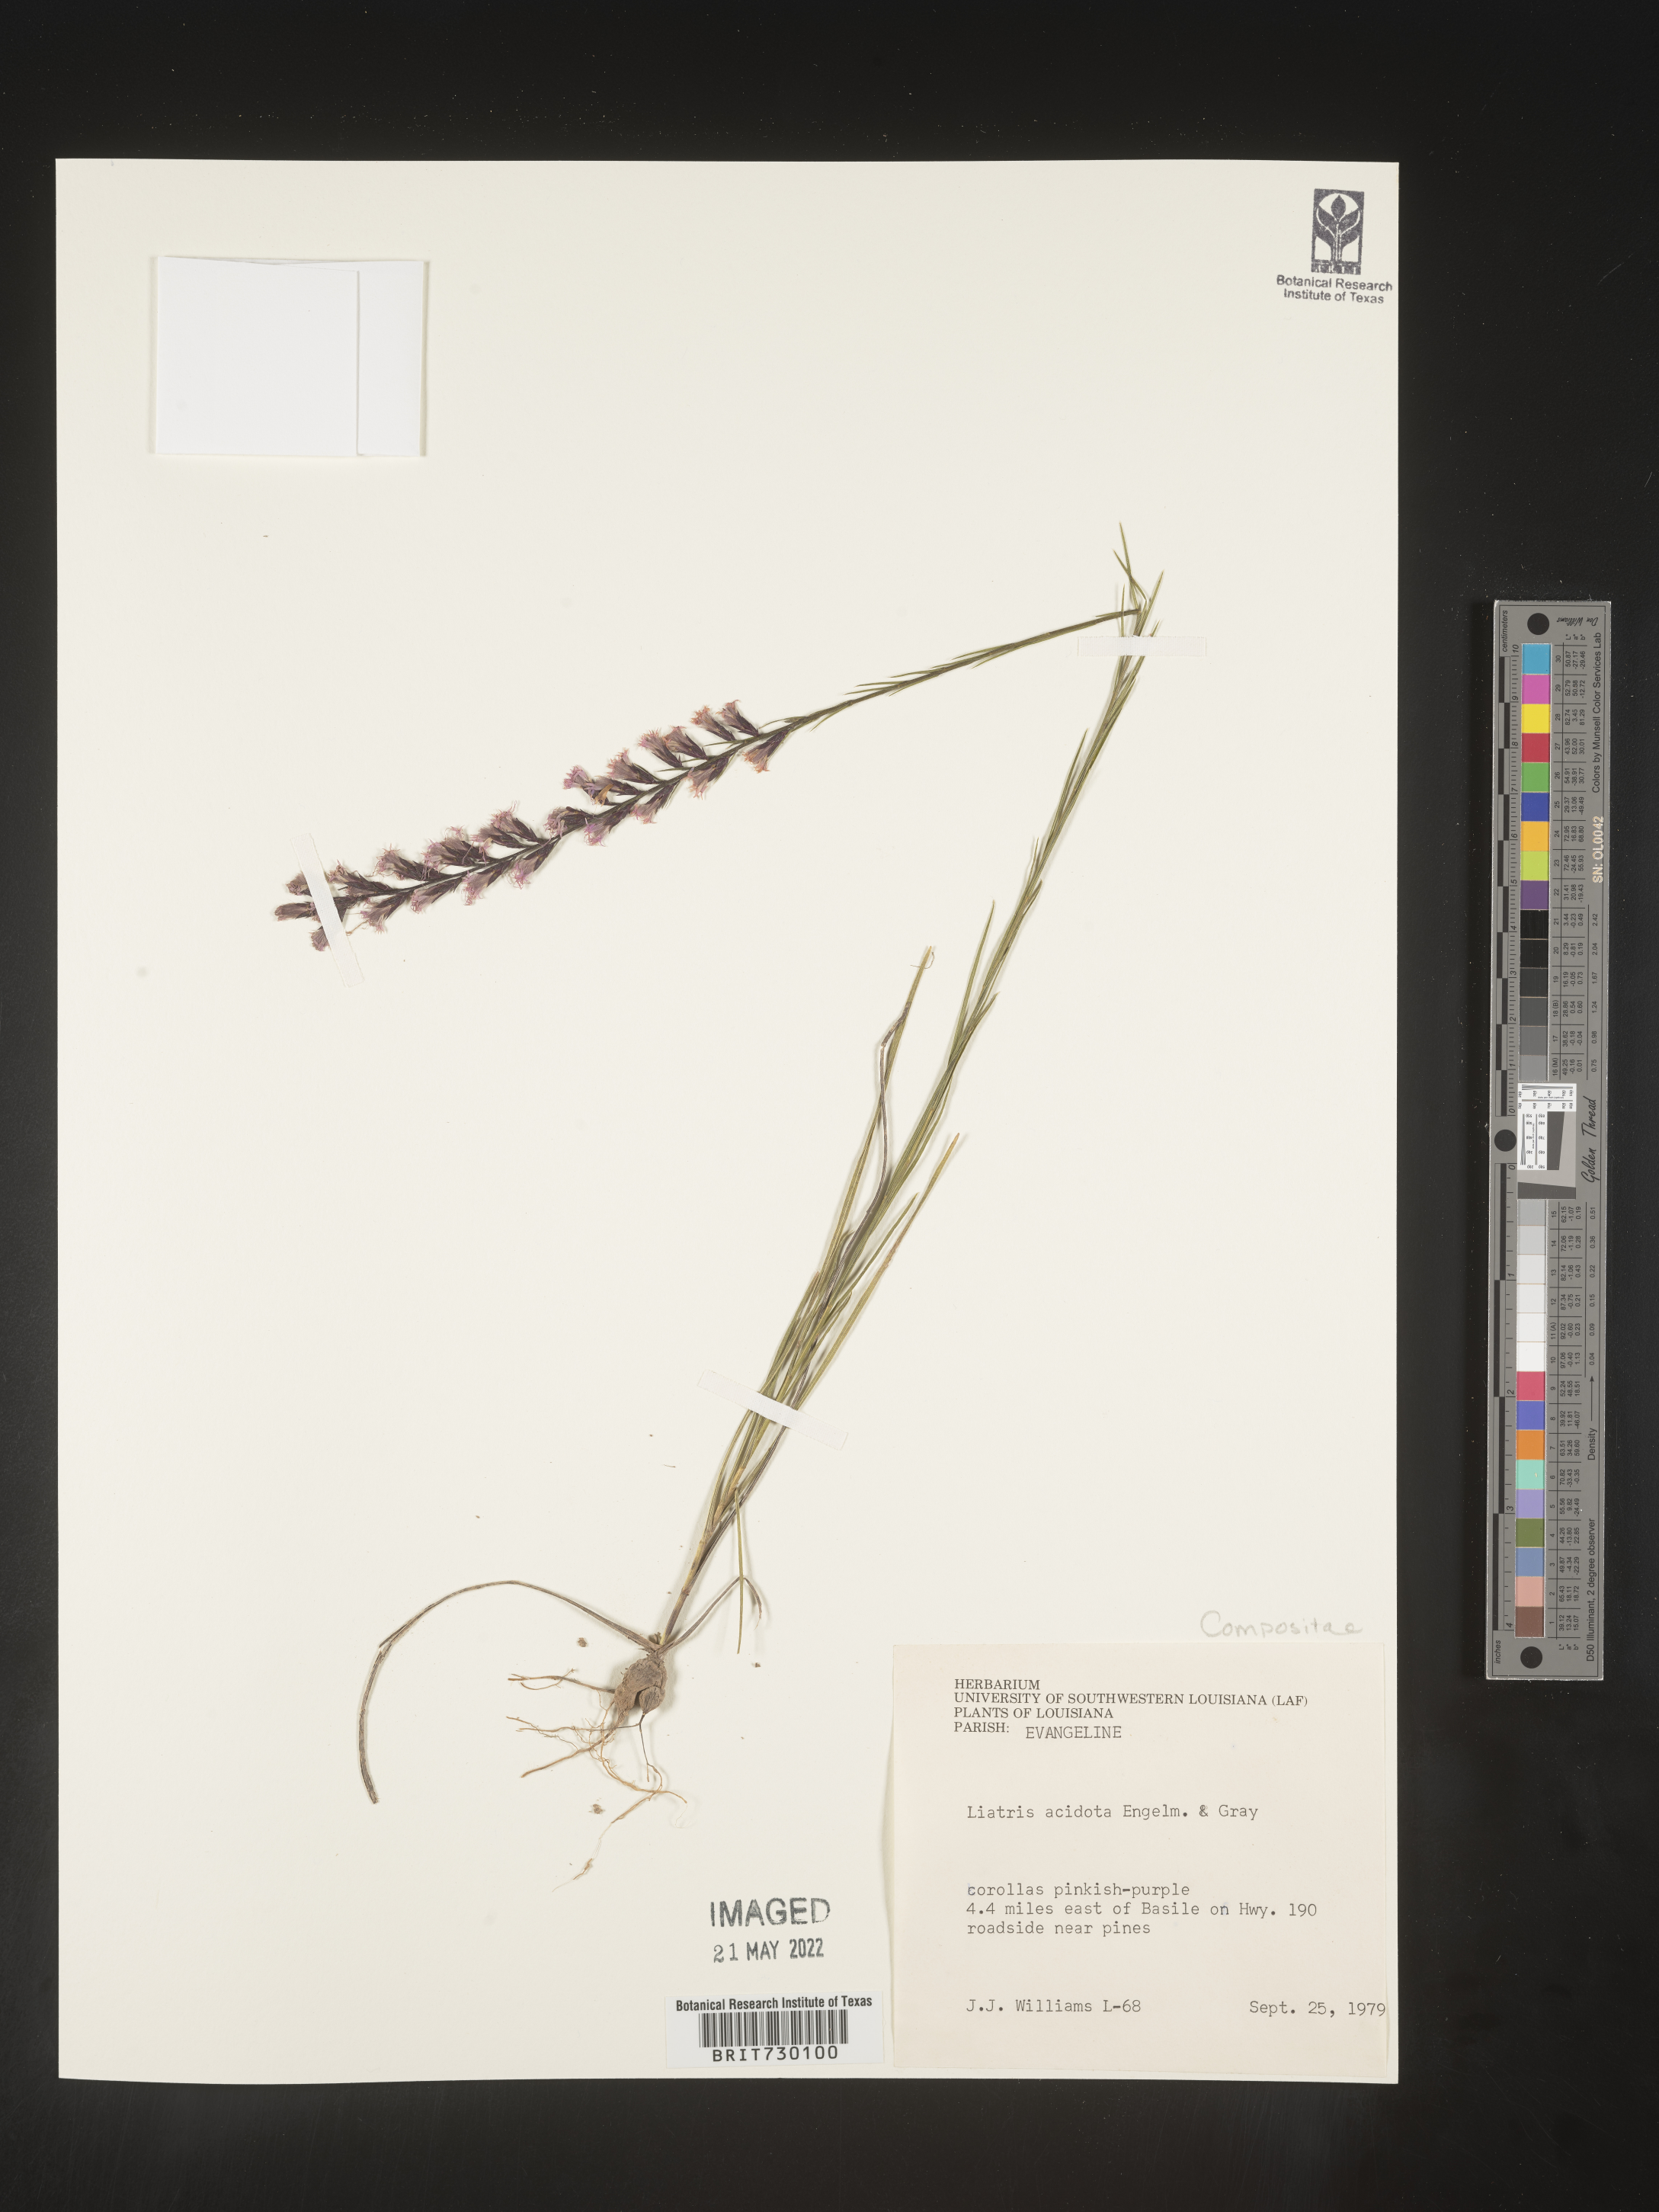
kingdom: Plantae
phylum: Tracheophyta
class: Magnoliopsida
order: Asterales
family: Asteraceae
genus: Liatris
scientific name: Liatris acidota
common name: Gulf coast gayfeather
